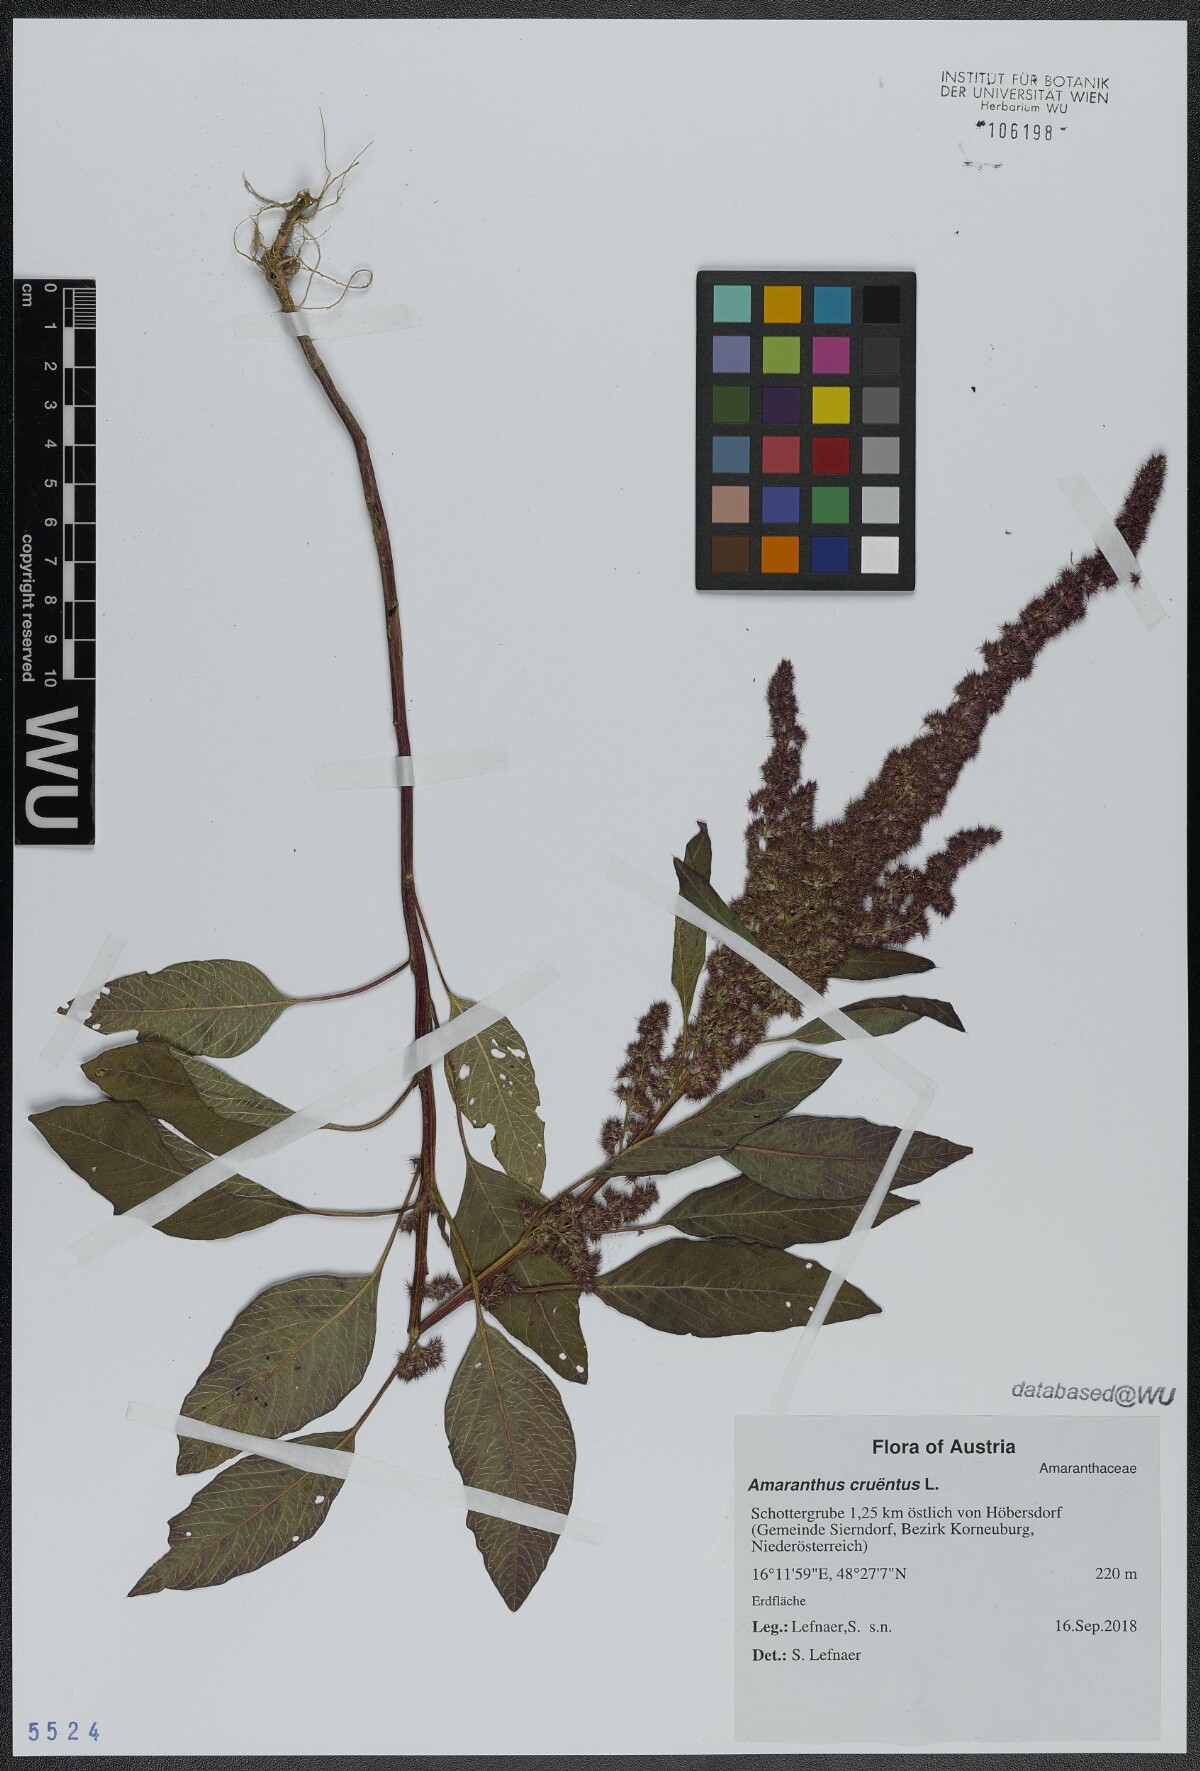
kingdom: Plantae
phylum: Tracheophyta
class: Magnoliopsida
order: Caryophyllales
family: Amaranthaceae
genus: Amaranthus
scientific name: Amaranthus cruentus
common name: Purple amaranth
